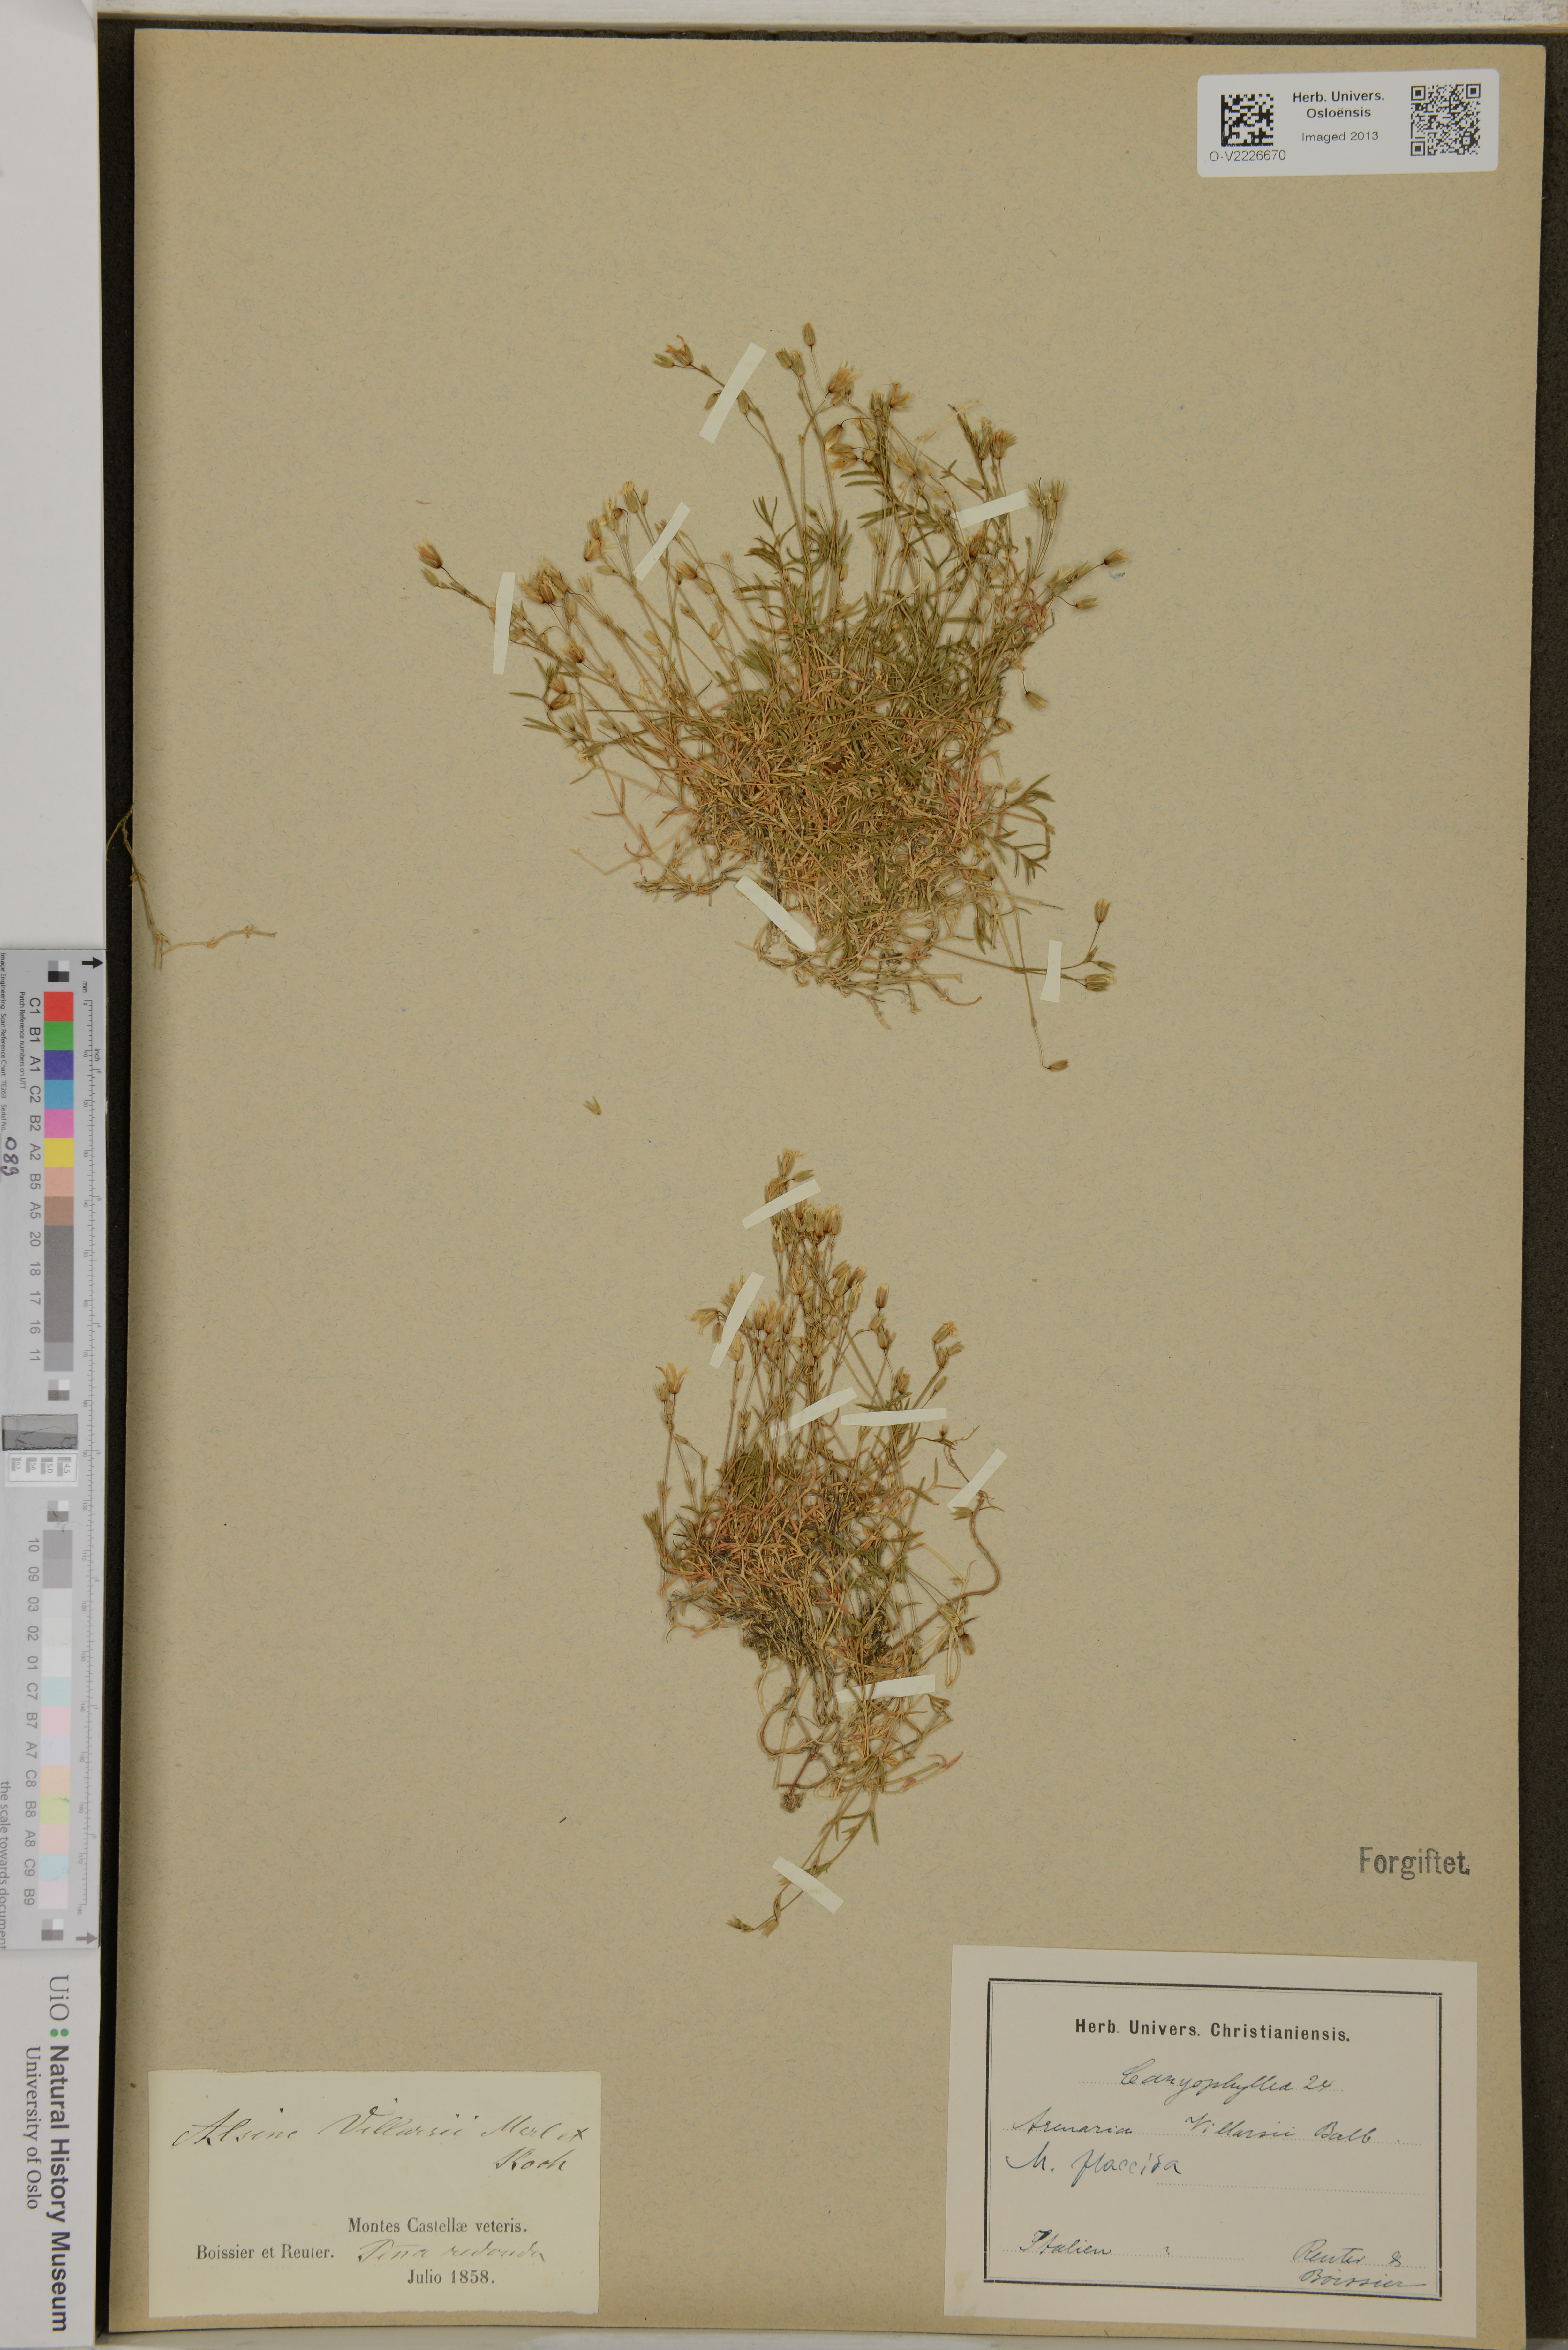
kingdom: Plantae
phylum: Tracheophyta
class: Magnoliopsida
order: Caryophyllales
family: Caryophyllaceae
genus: Facchinia
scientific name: Facchinia villarsii
